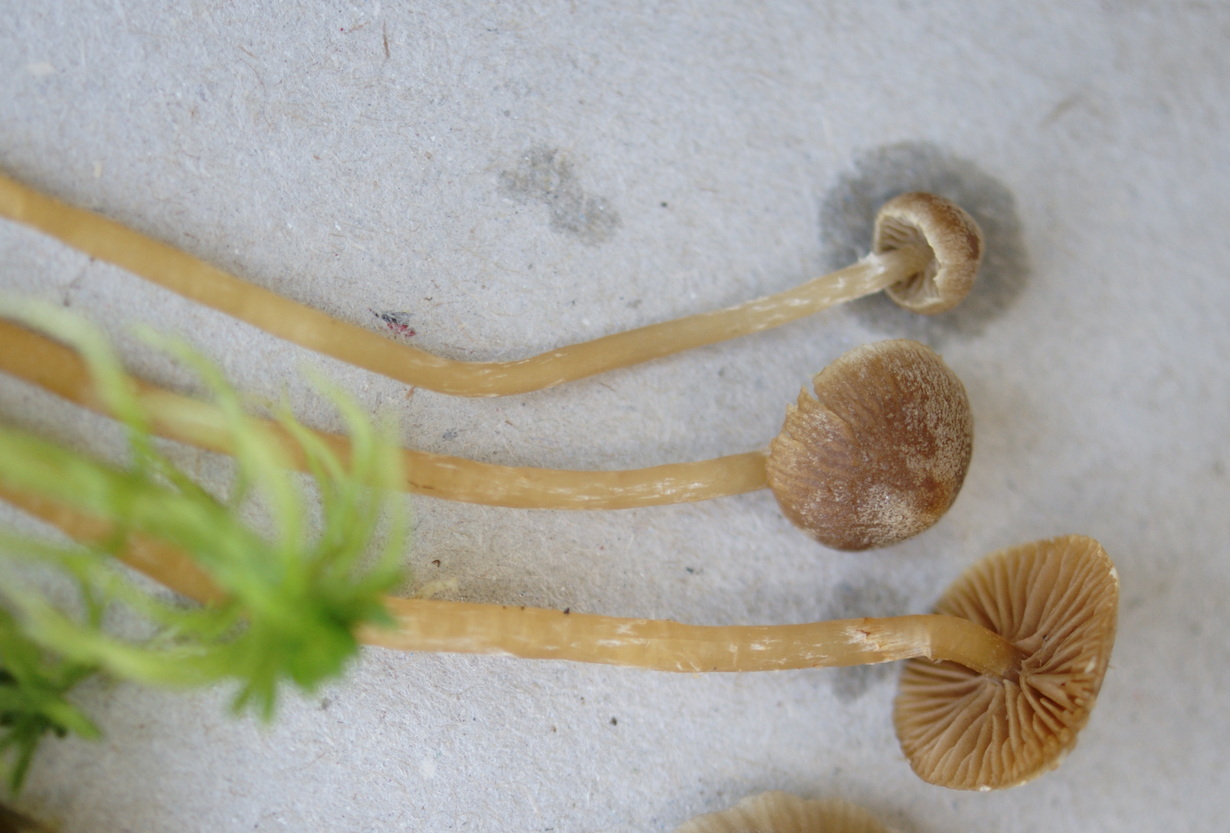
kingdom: Fungi
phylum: Basidiomycota
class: Agaricomycetes
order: Agaricales
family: Hymenogastraceae
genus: Galerina
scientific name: Galerina paludosa
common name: mose-hjelmhat
